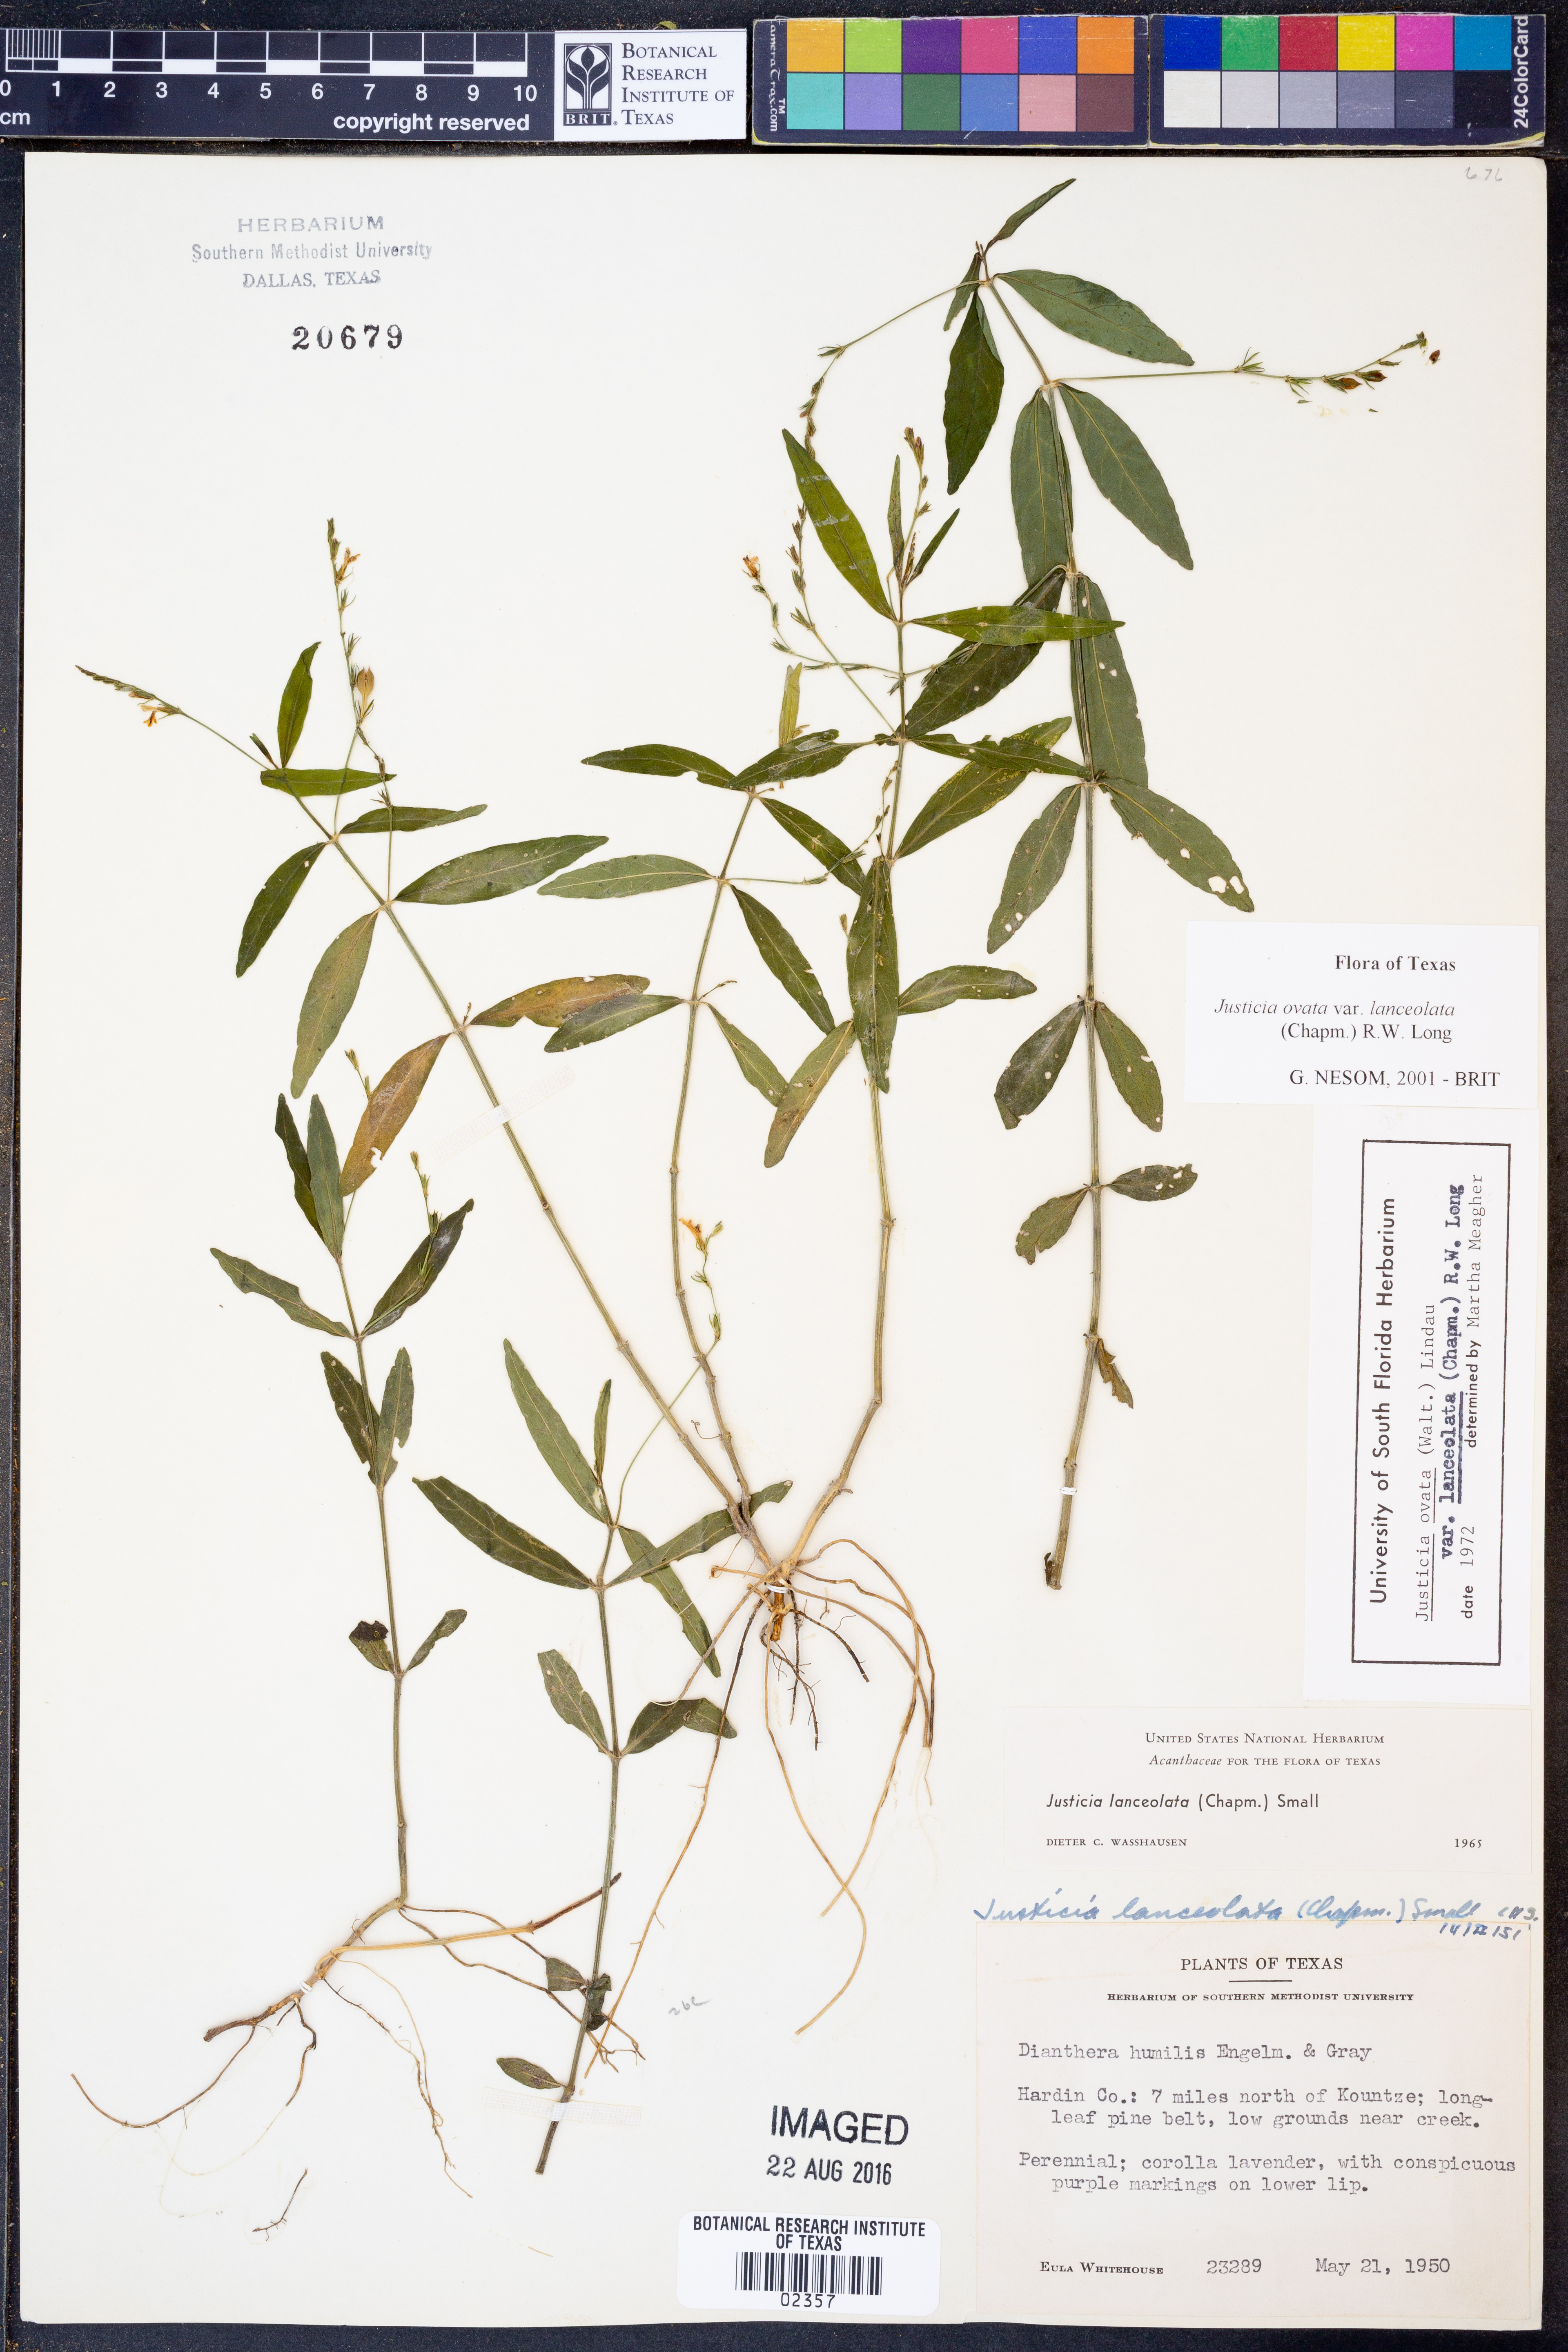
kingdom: Plantae
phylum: Tracheophyta
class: Magnoliopsida
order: Lamiales
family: Acanthaceae
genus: Justicia
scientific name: Justicia lanceolata
